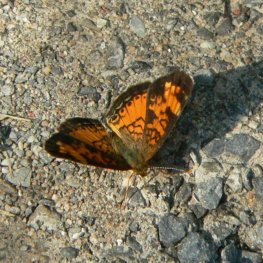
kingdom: Animalia
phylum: Arthropoda
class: Insecta
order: Lepidoptera
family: Nymphalidae
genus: Phyciodes
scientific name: Phyciodes tharos
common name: Northern Crescent
